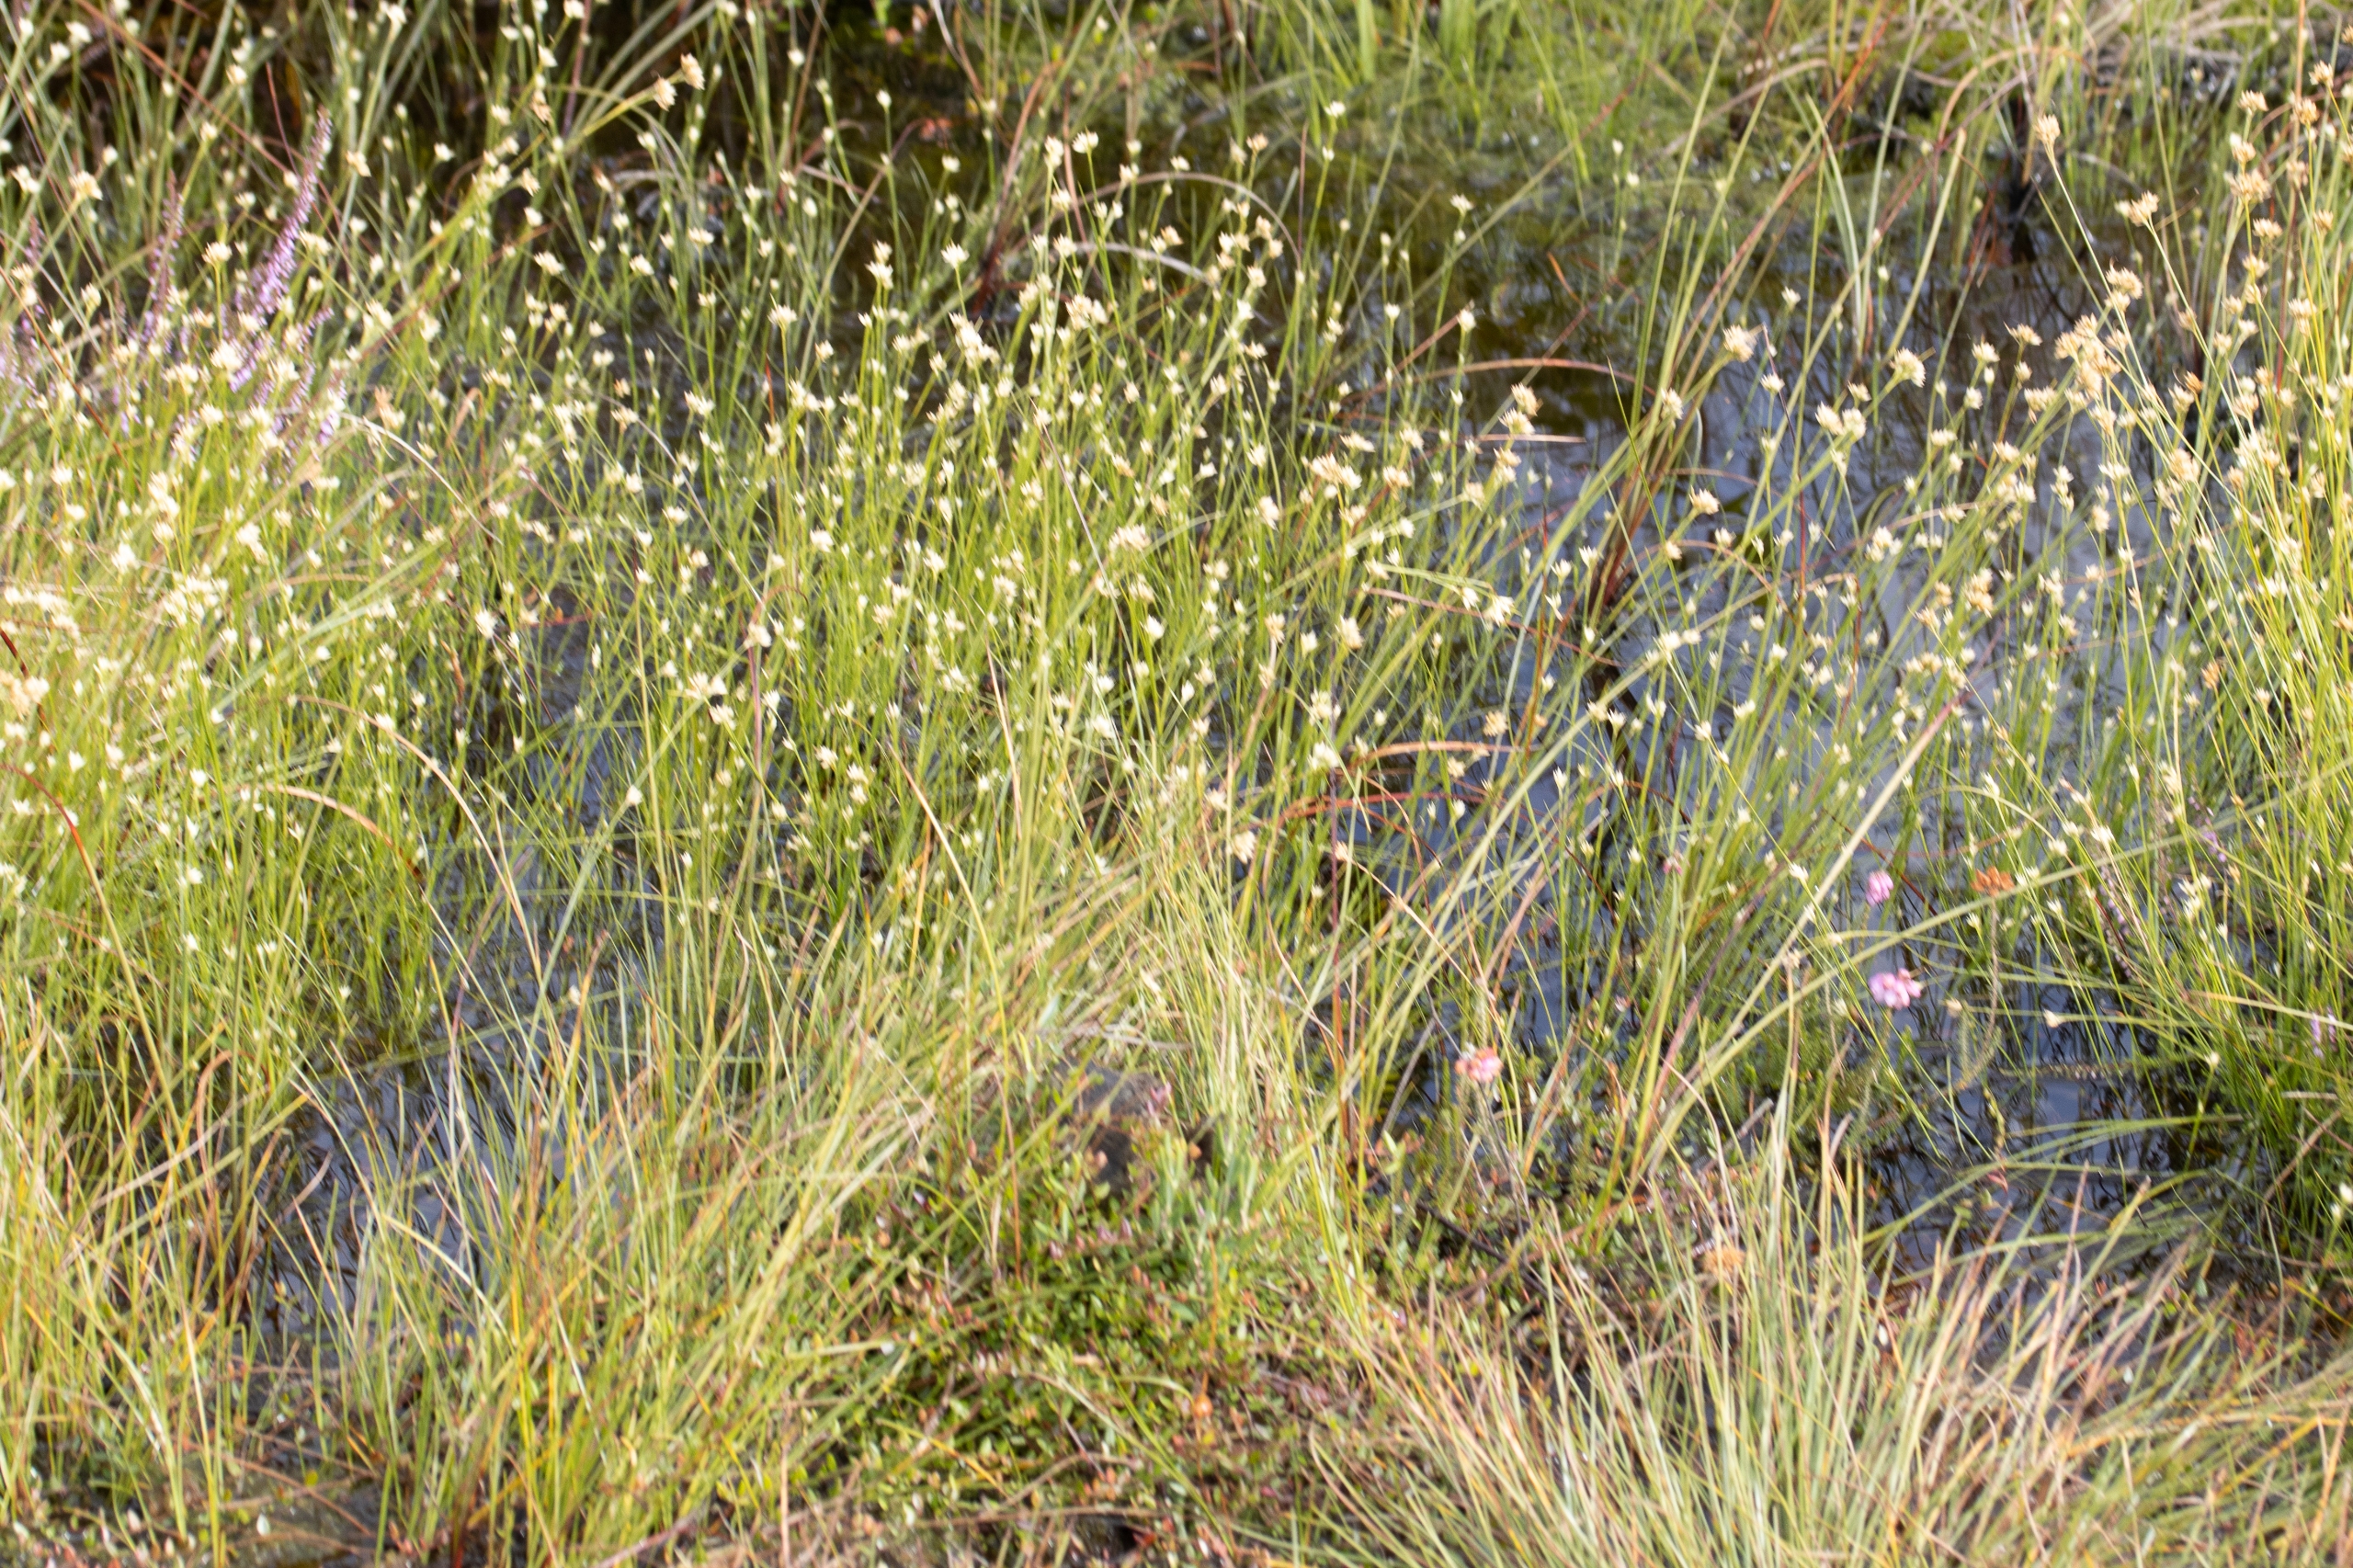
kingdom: Plantae
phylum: Tracheophyta
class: Liliopsida
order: Poales
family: Cyperaceae
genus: Rhynchospora
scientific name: Rhynchospora alba
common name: Hvid næbfrø
